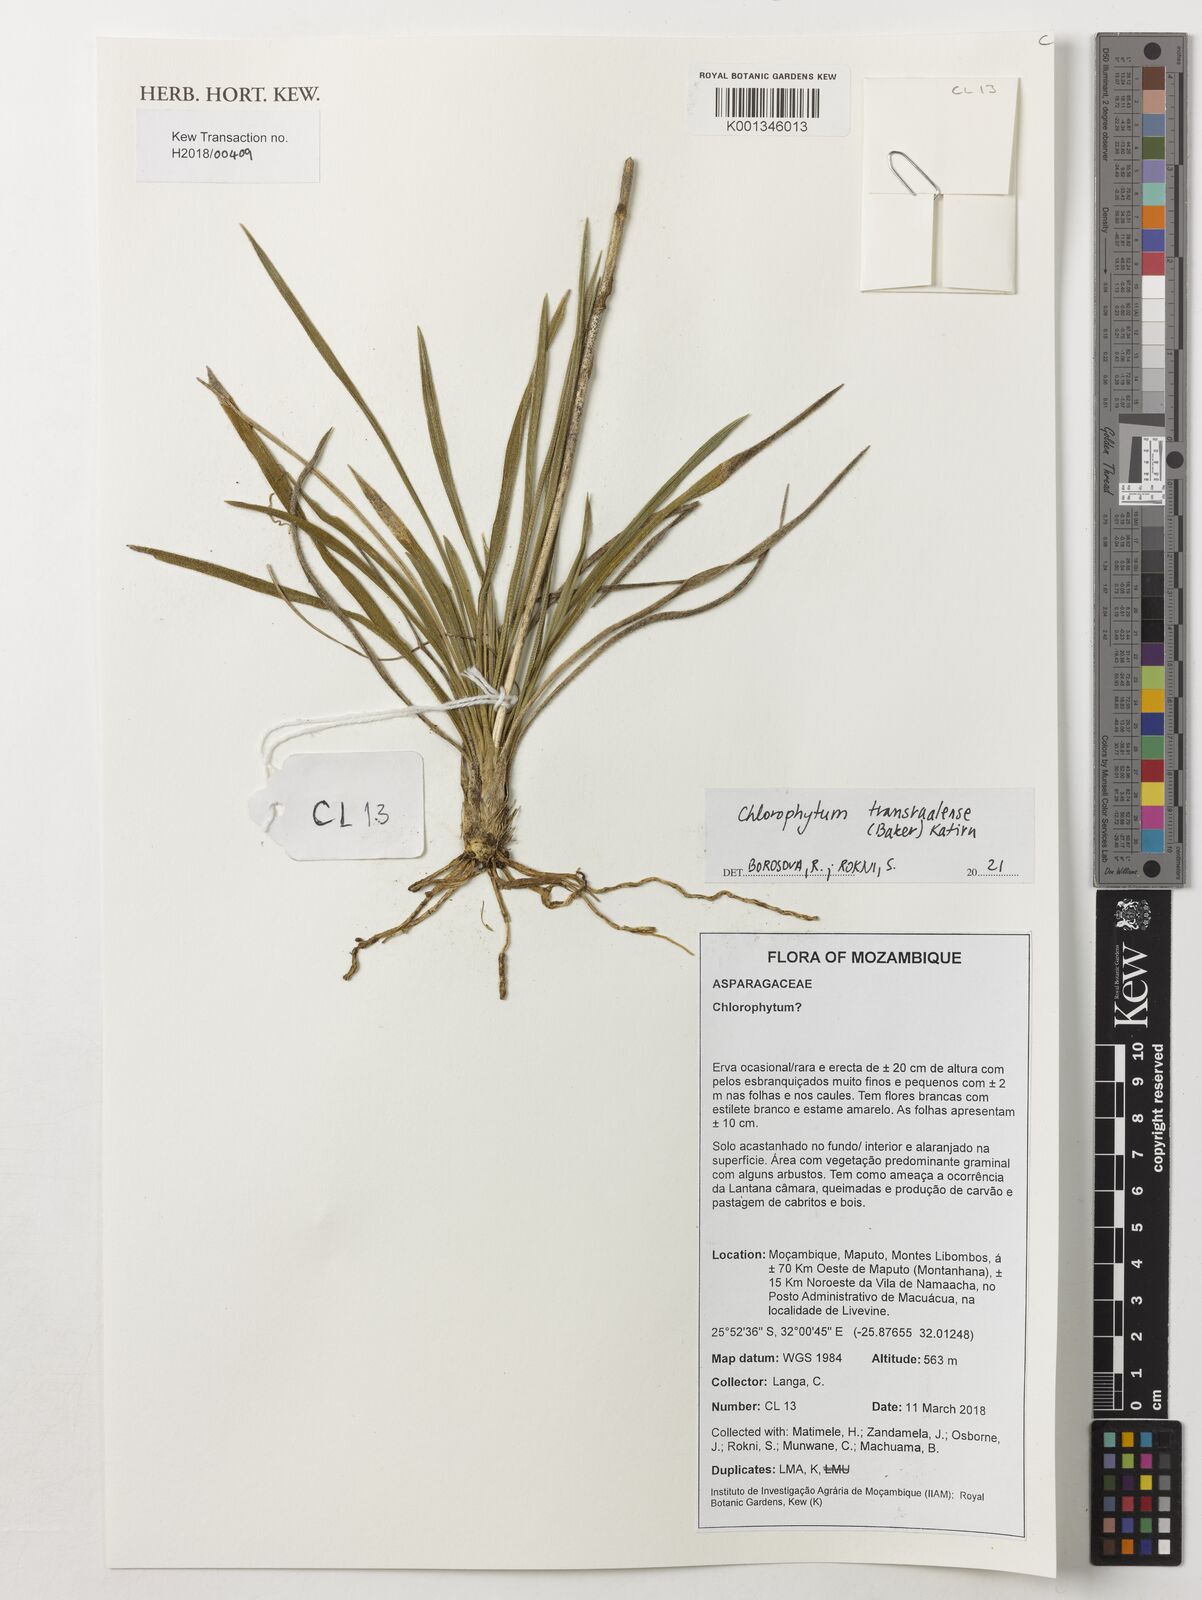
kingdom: Plantae
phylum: Tracheophyta
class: Liliopsida
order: Asparagales
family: Asparagaceae
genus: Chlorophytum
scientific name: Chlorophytum transvaalense
